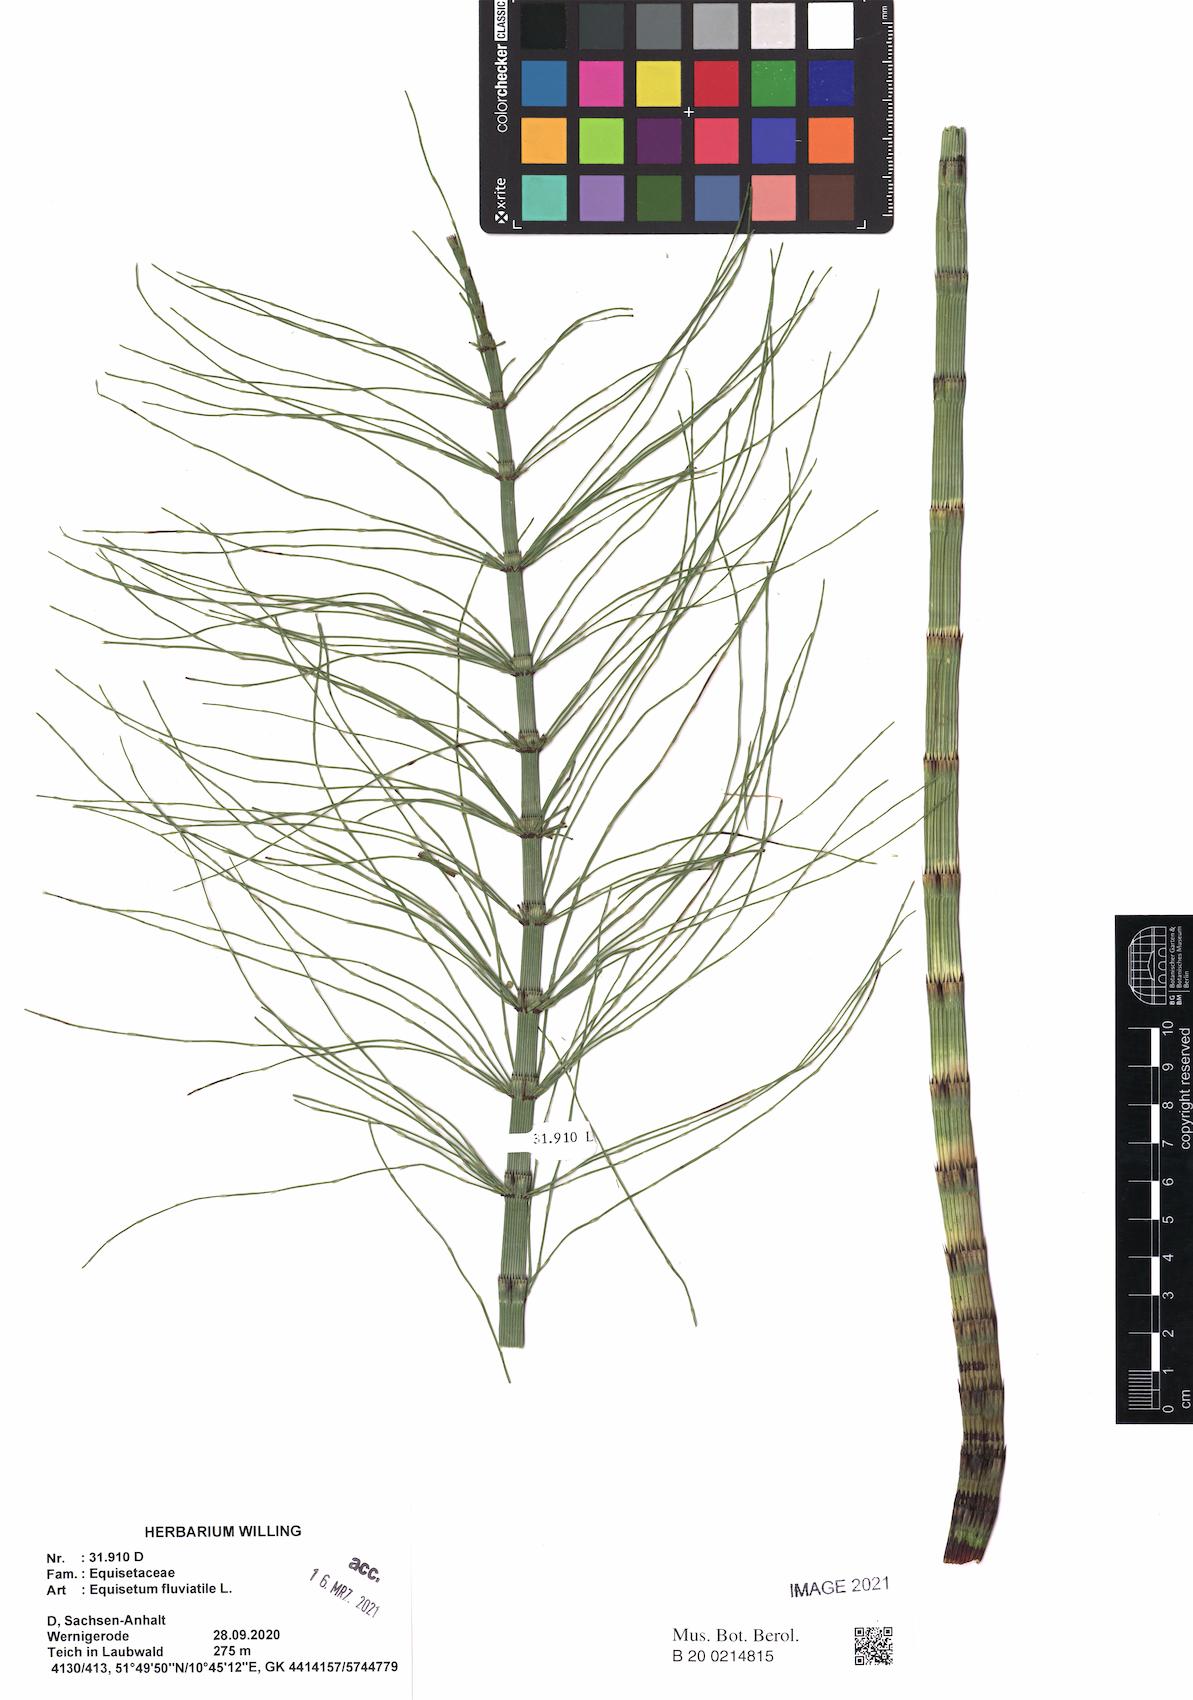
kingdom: Plantae
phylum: Tracheophyta
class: Polypodiopsida
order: Equisetales
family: Equisetaceae
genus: Equisetum
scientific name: Equisetum fluviatile
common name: Water horsetail
